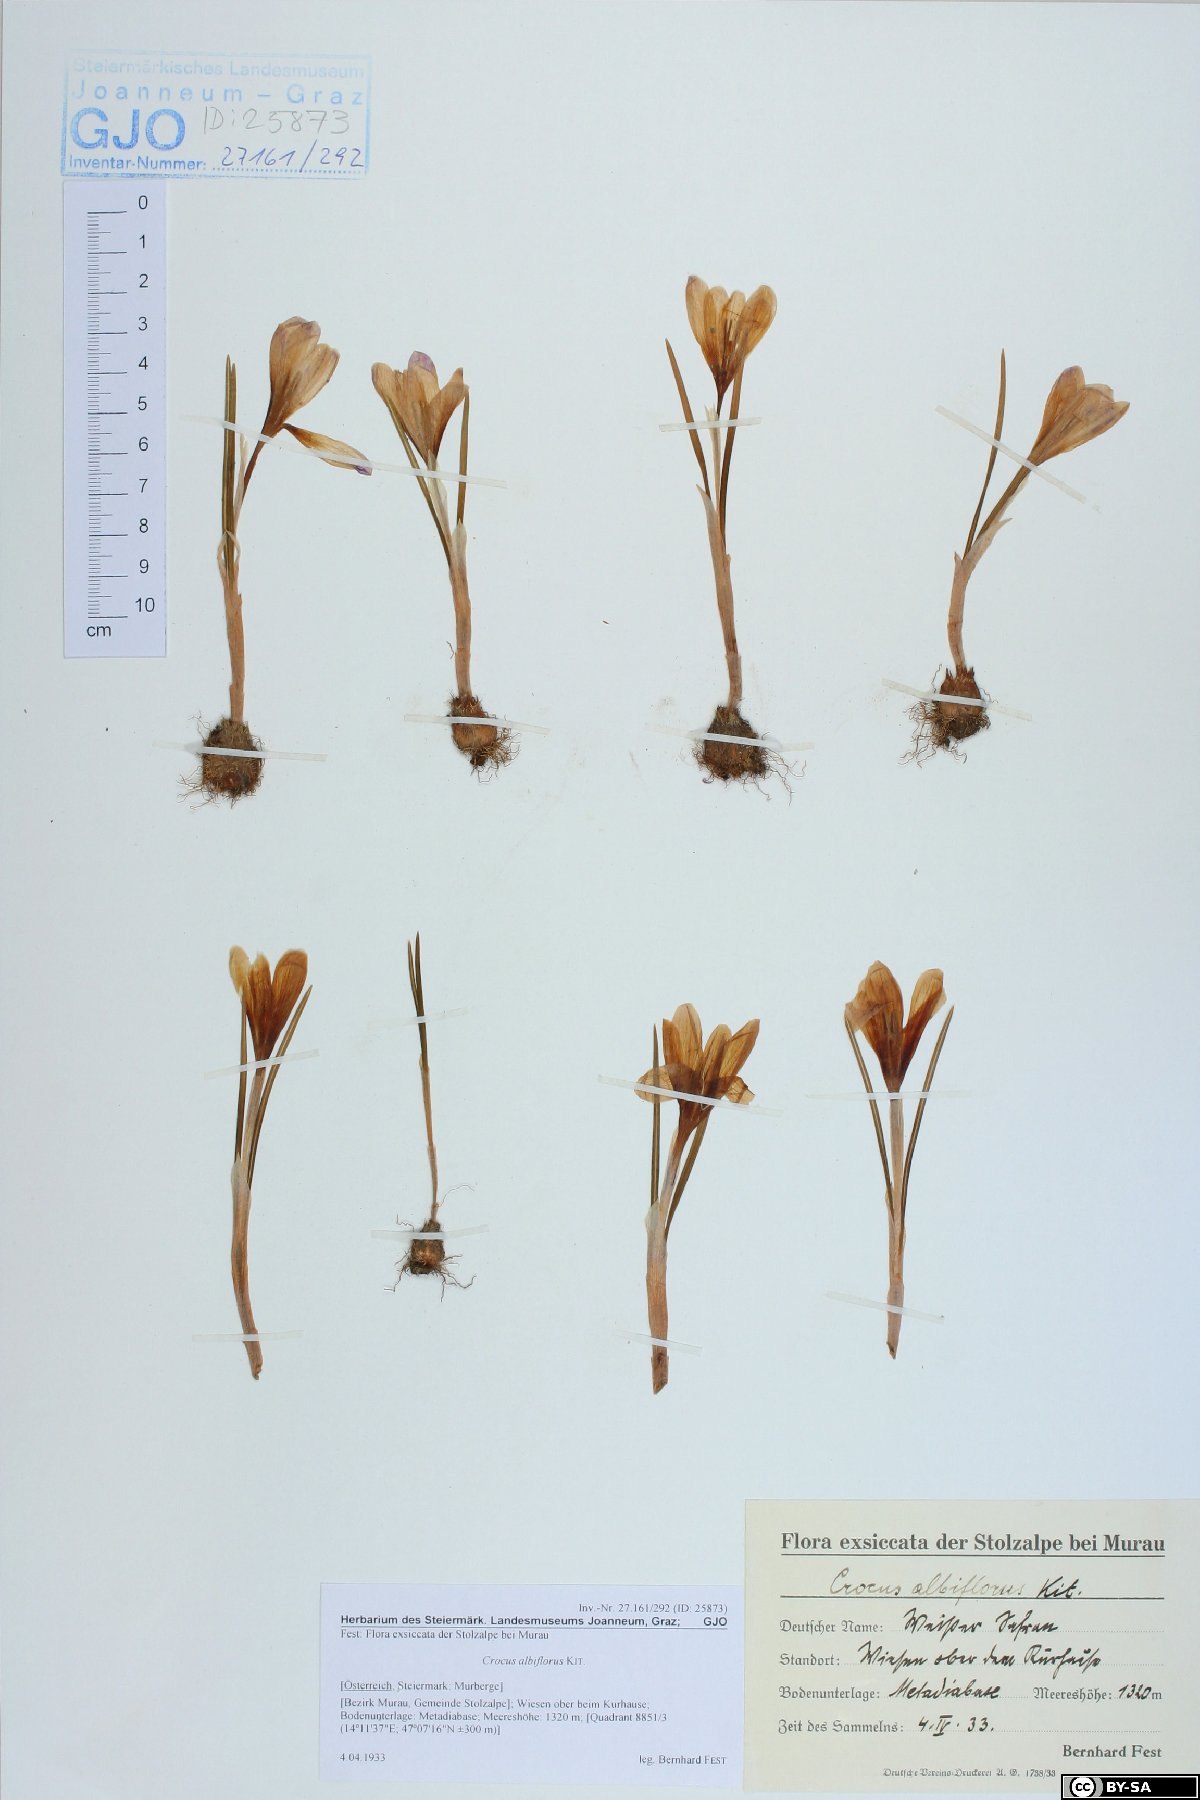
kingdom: Plantae
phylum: Tracheophyta
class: Liliopsida
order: Asparagales
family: Iridaceae
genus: Crocus
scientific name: Crocus vernus
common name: Spring crocus
